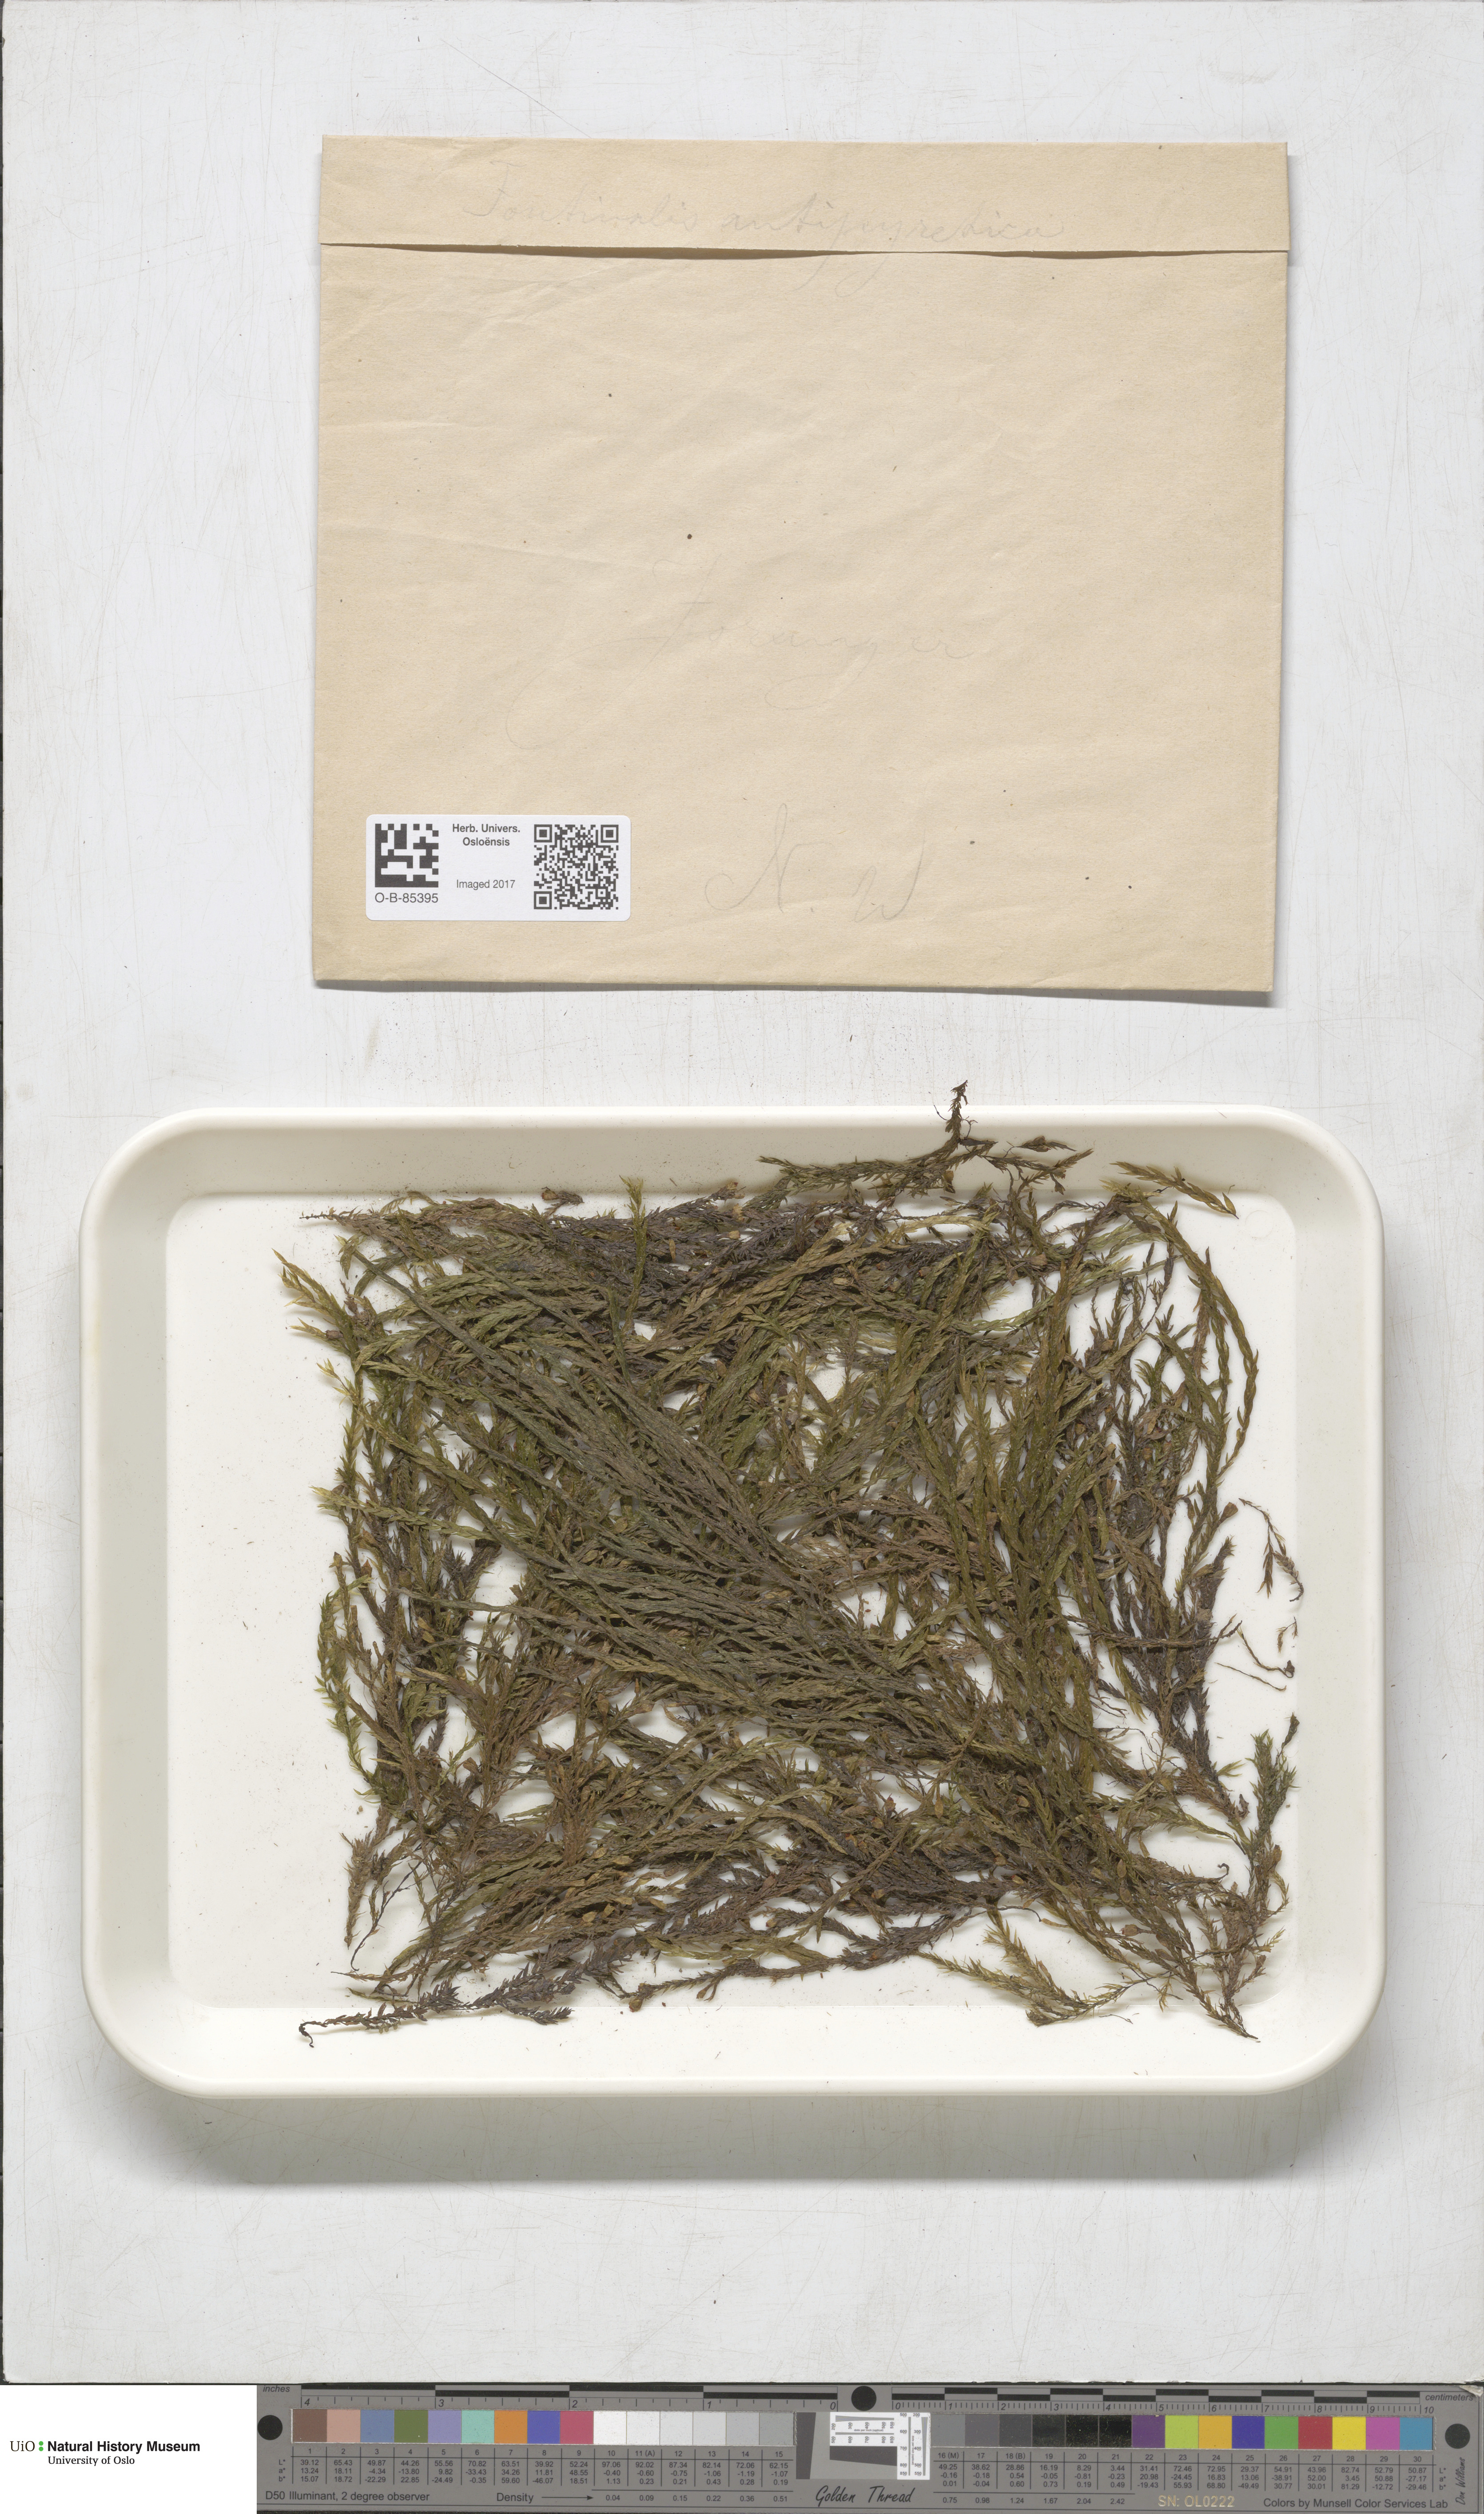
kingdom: Plantae
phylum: Bryophyta
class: Bryopsida
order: Hypnales
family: Fontinalaceae
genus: Fontinalis
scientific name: Fontinalis antipyretica
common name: Greater water-moss
